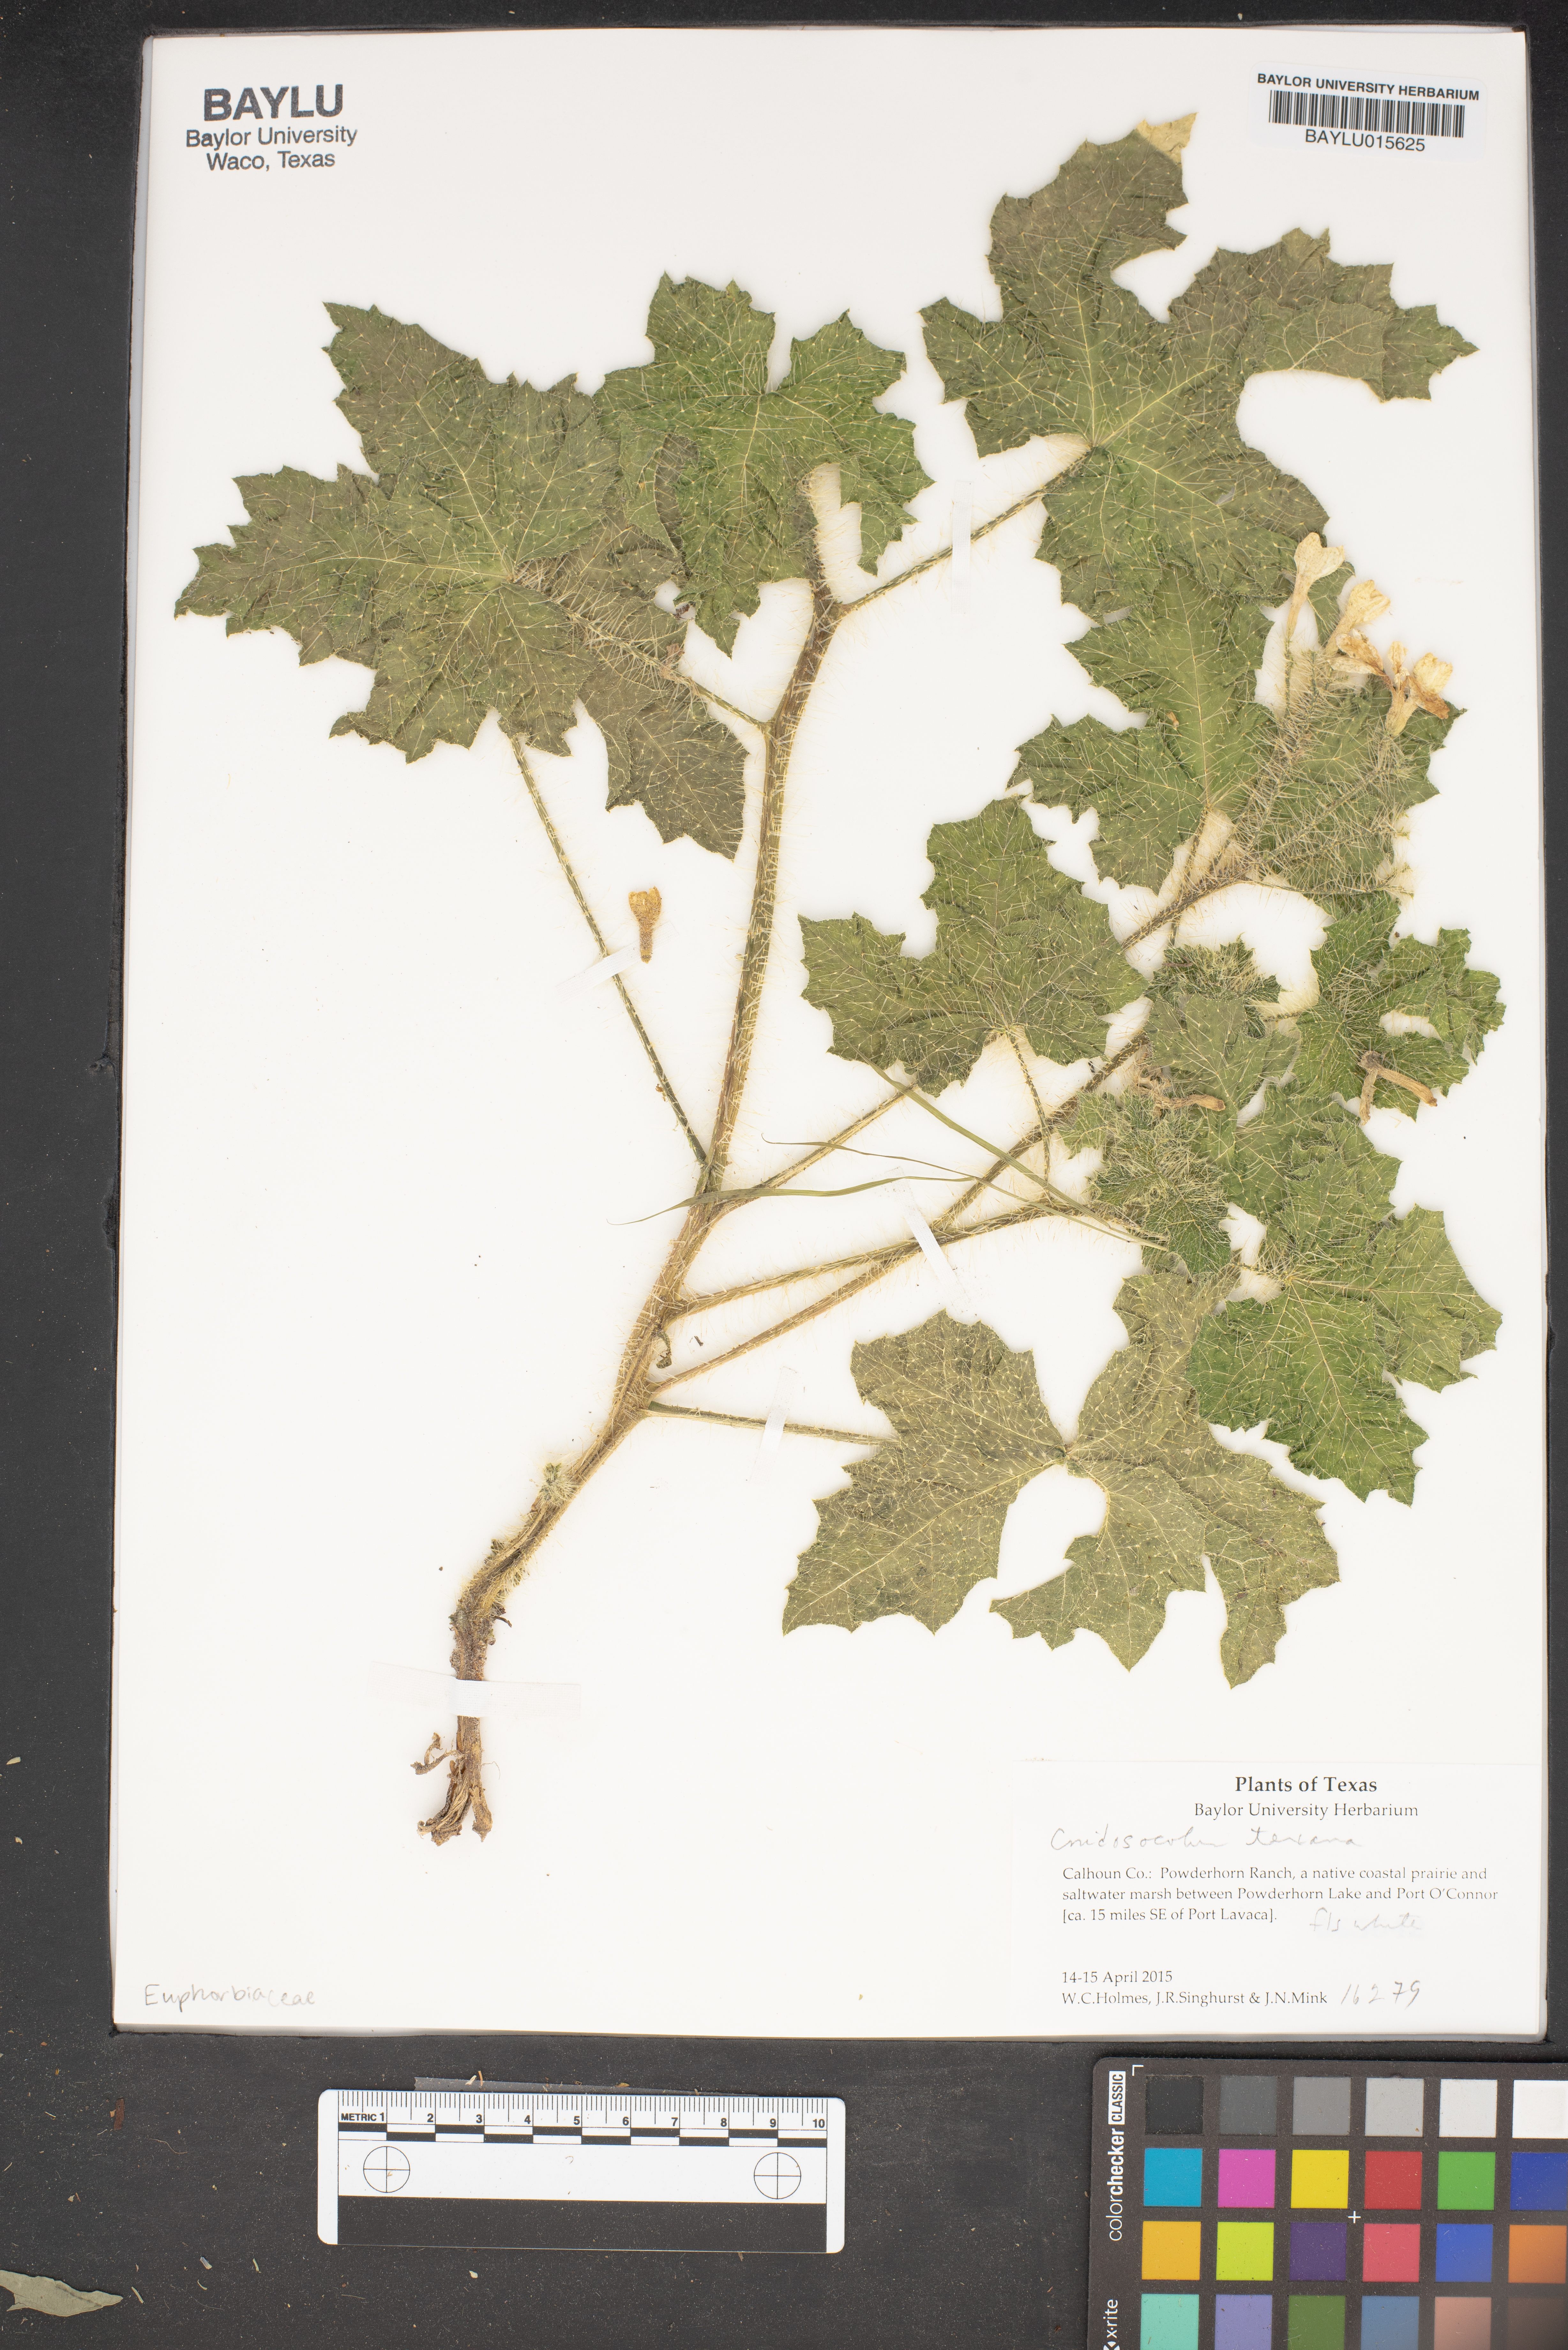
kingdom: Plantae
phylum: Tracheophyta
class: Magnoliopsida
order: Malpighiales
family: Euphorbiaceae
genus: Cnidoscolus
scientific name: Cnidoscolus texanus
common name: Texas bull-nettle
